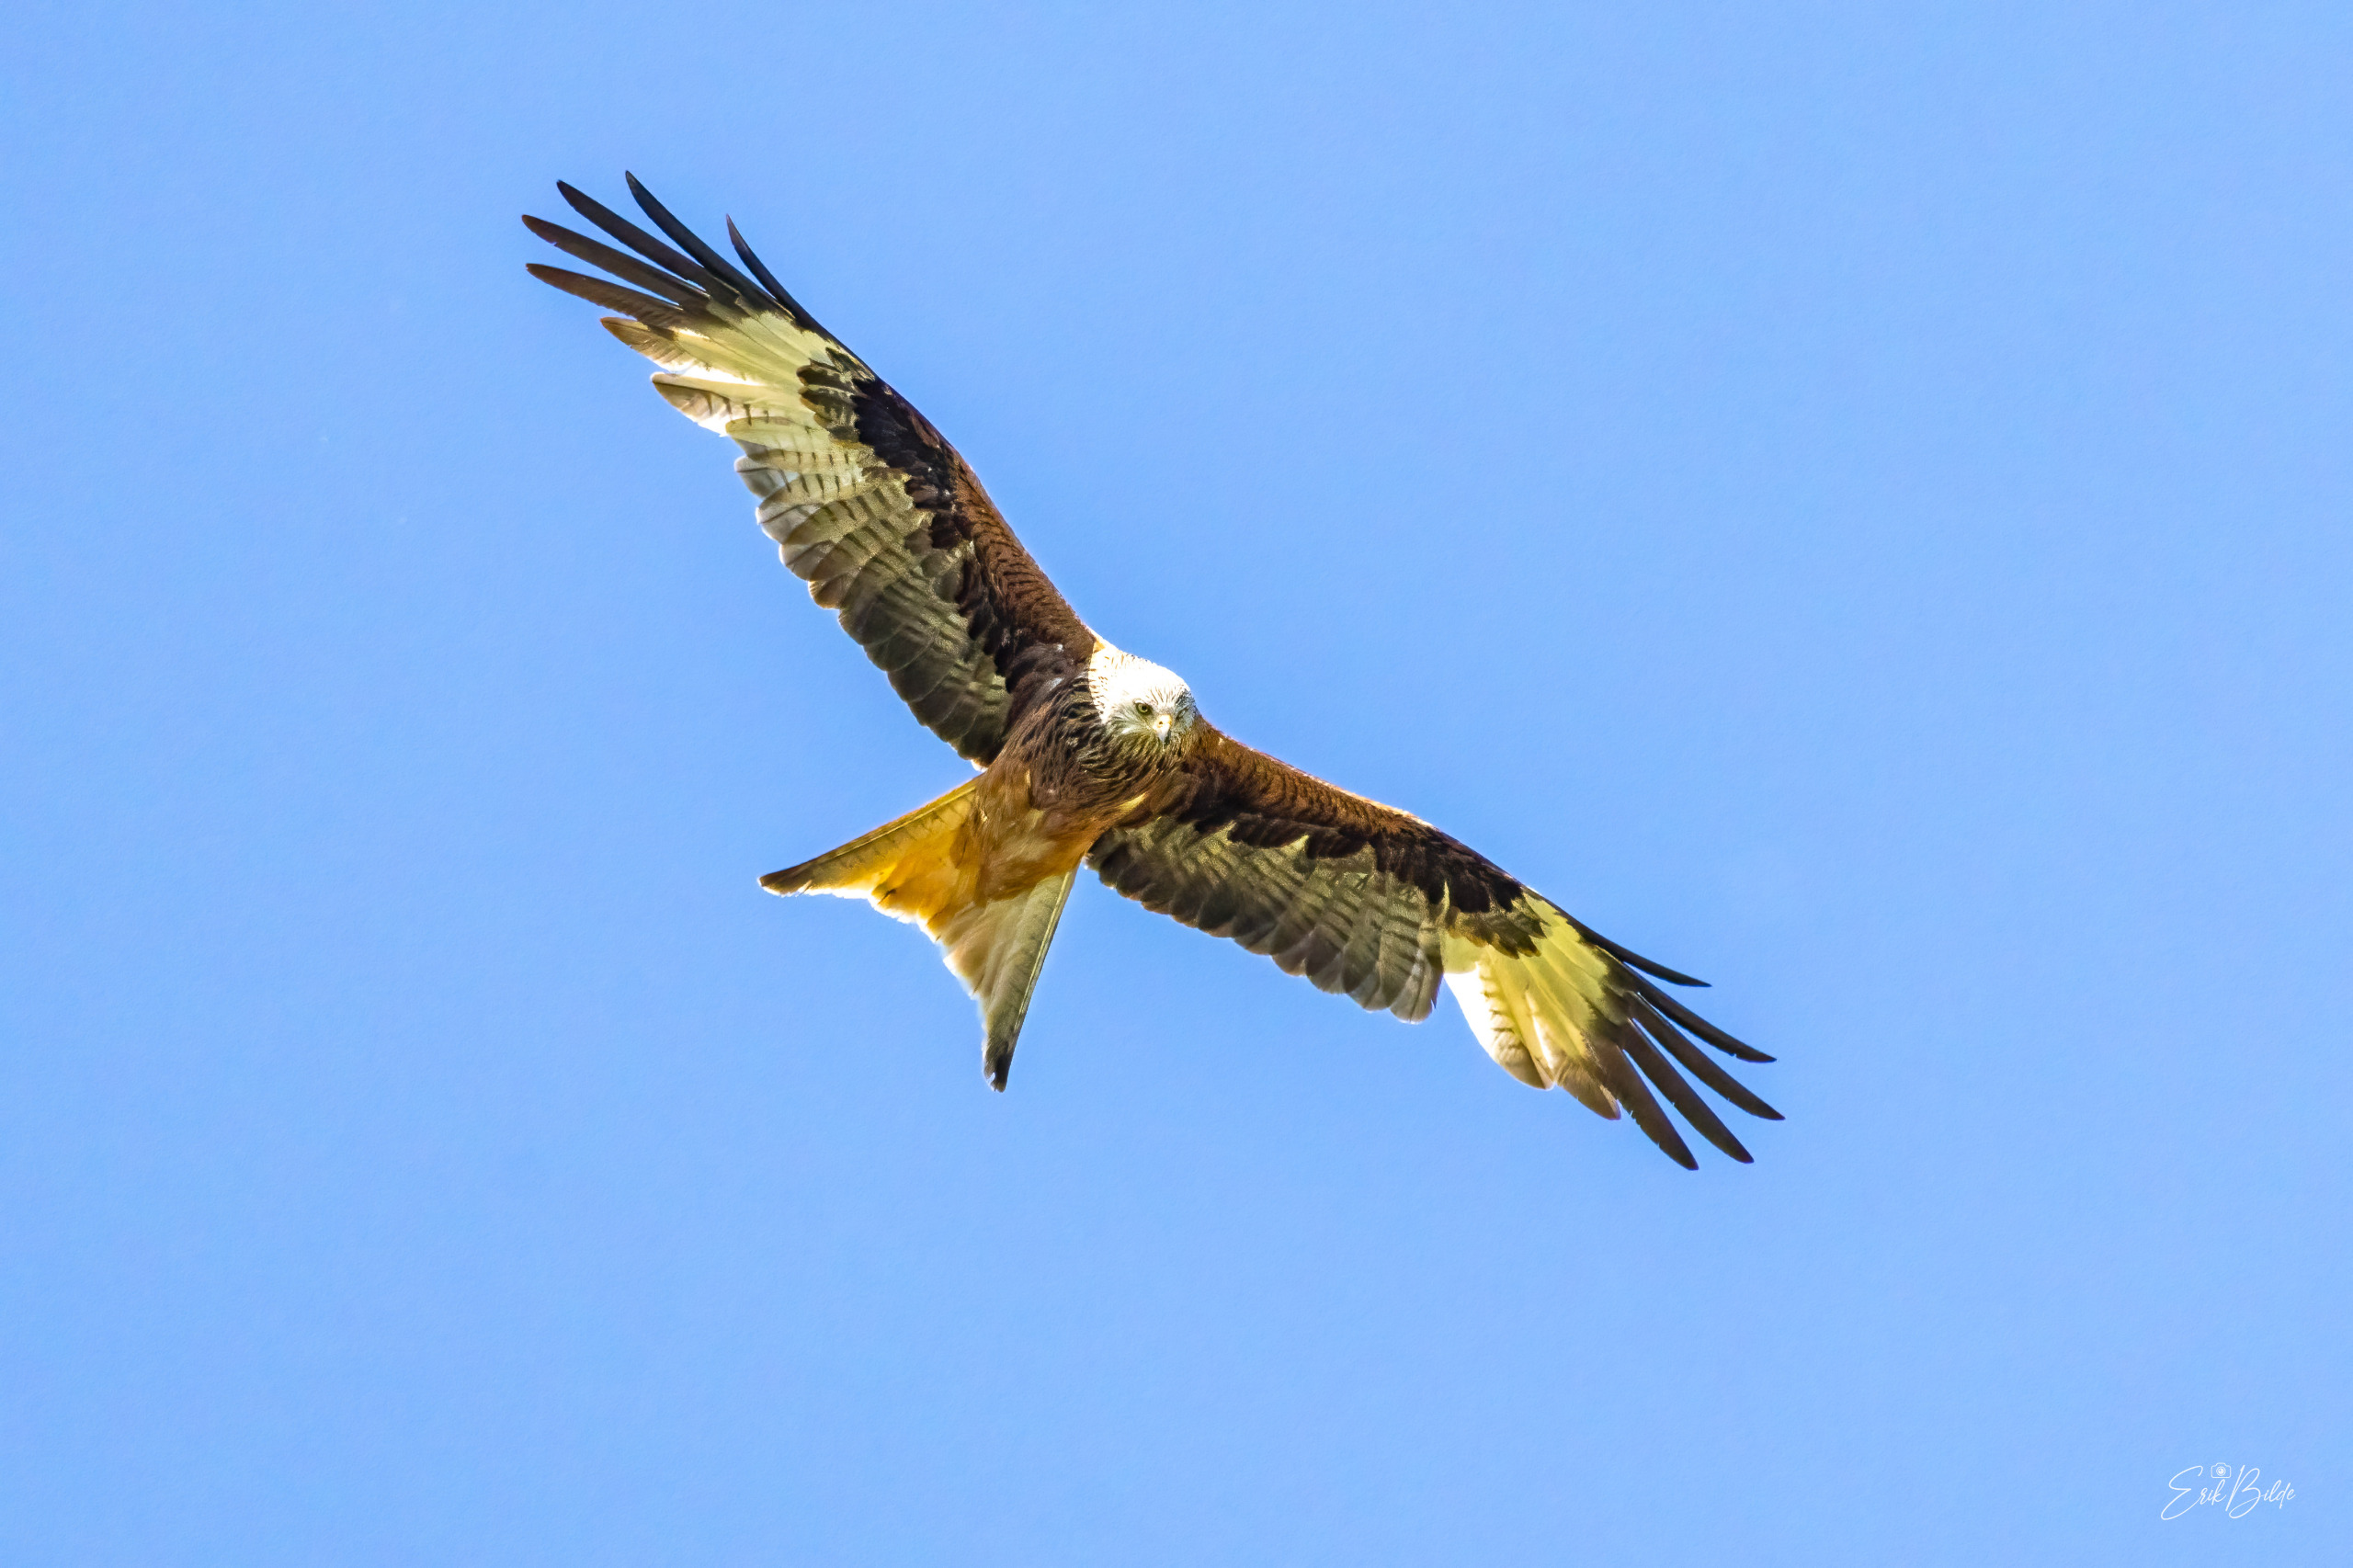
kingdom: Animalia
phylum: Chordata
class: Aves
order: Accipitriformes
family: Accipitridae
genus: Milvus
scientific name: Milvus milvus
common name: Rød glente
